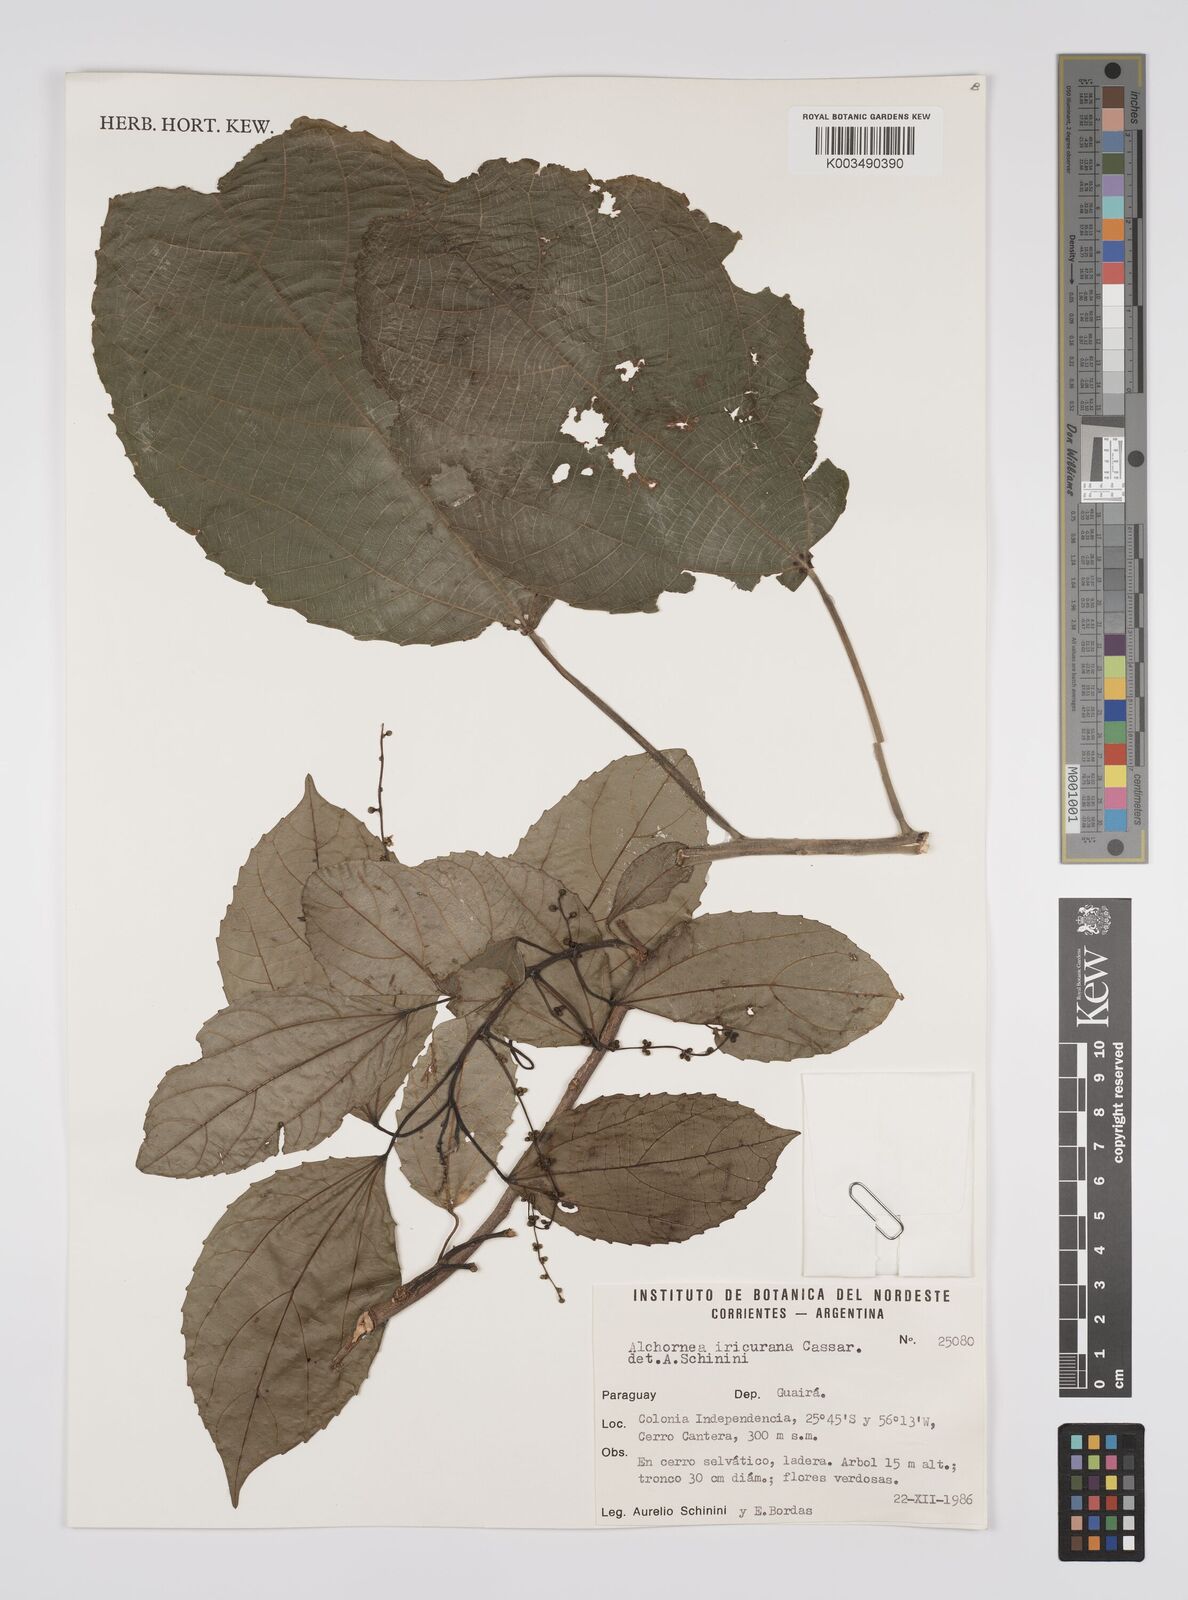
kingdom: Plantae
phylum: Tracheophyta
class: Magnoliopsida
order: Malpighiales
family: Euphorbiaceae
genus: Alchornea
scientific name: Alchornea glandulosa
